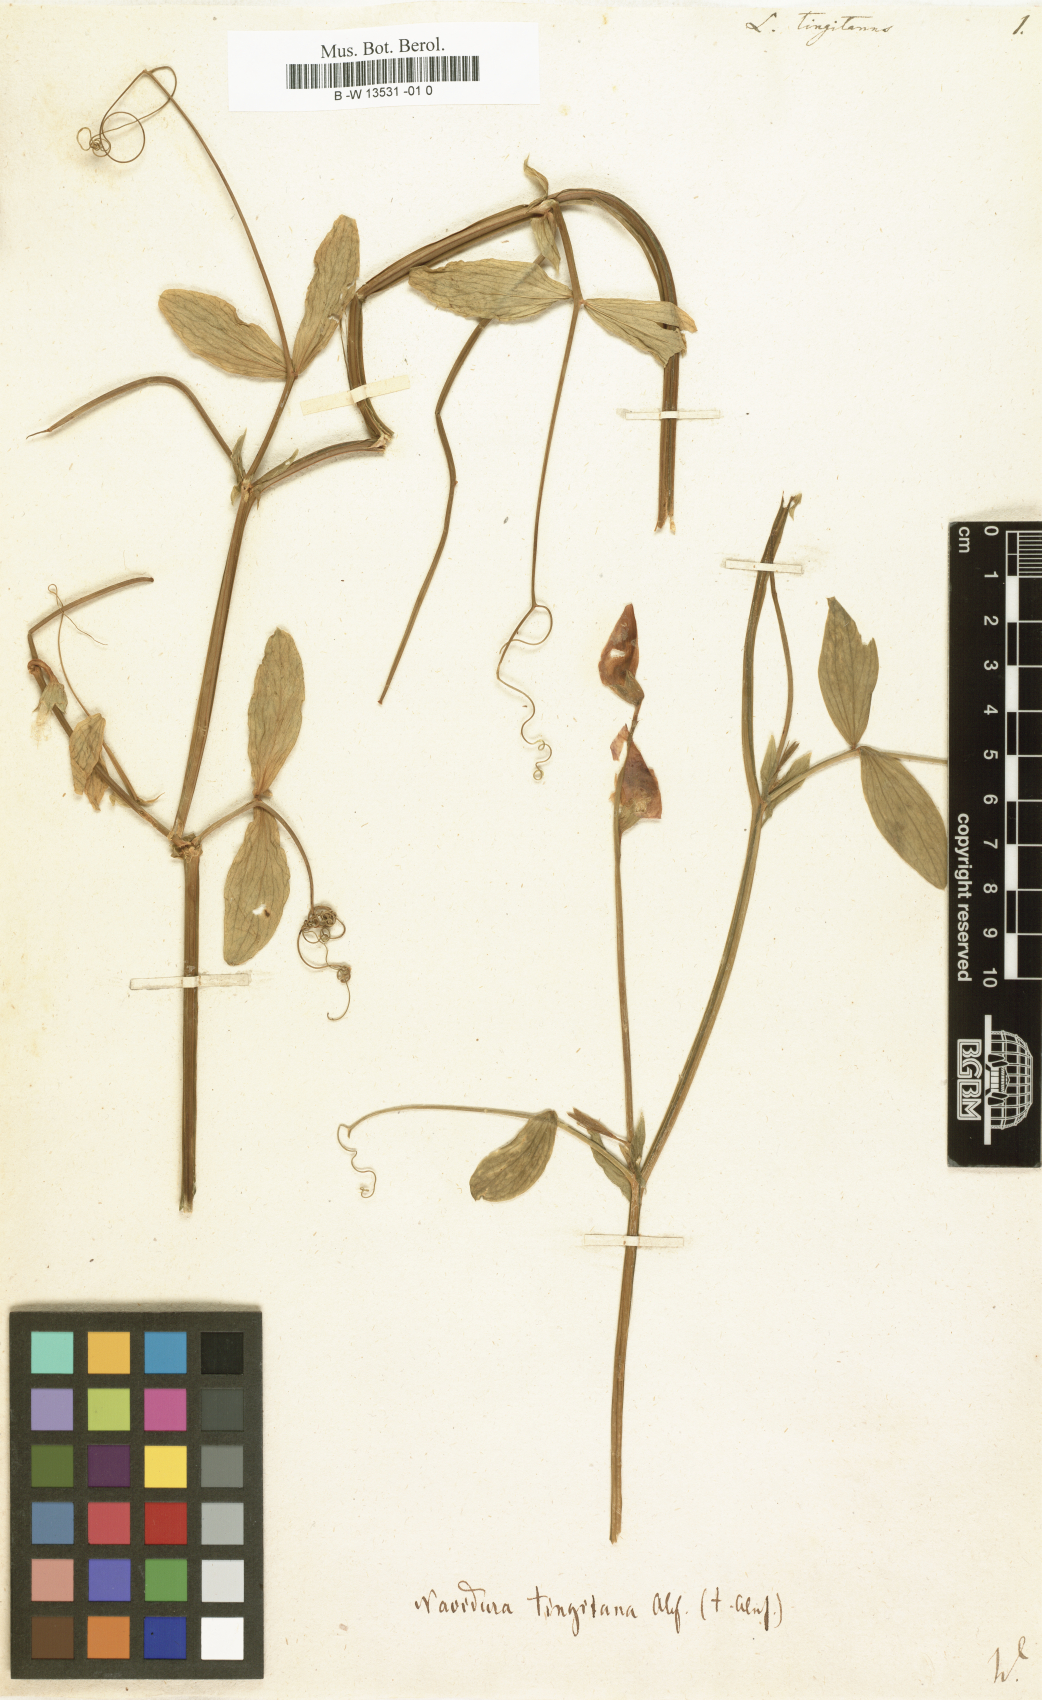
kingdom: Plantae
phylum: Tracheophyta
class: Magnoliopsida
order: Fabales
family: Fabaceae
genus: Lathyrus
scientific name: Lathyrus tingitanus
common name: Tangier pea
